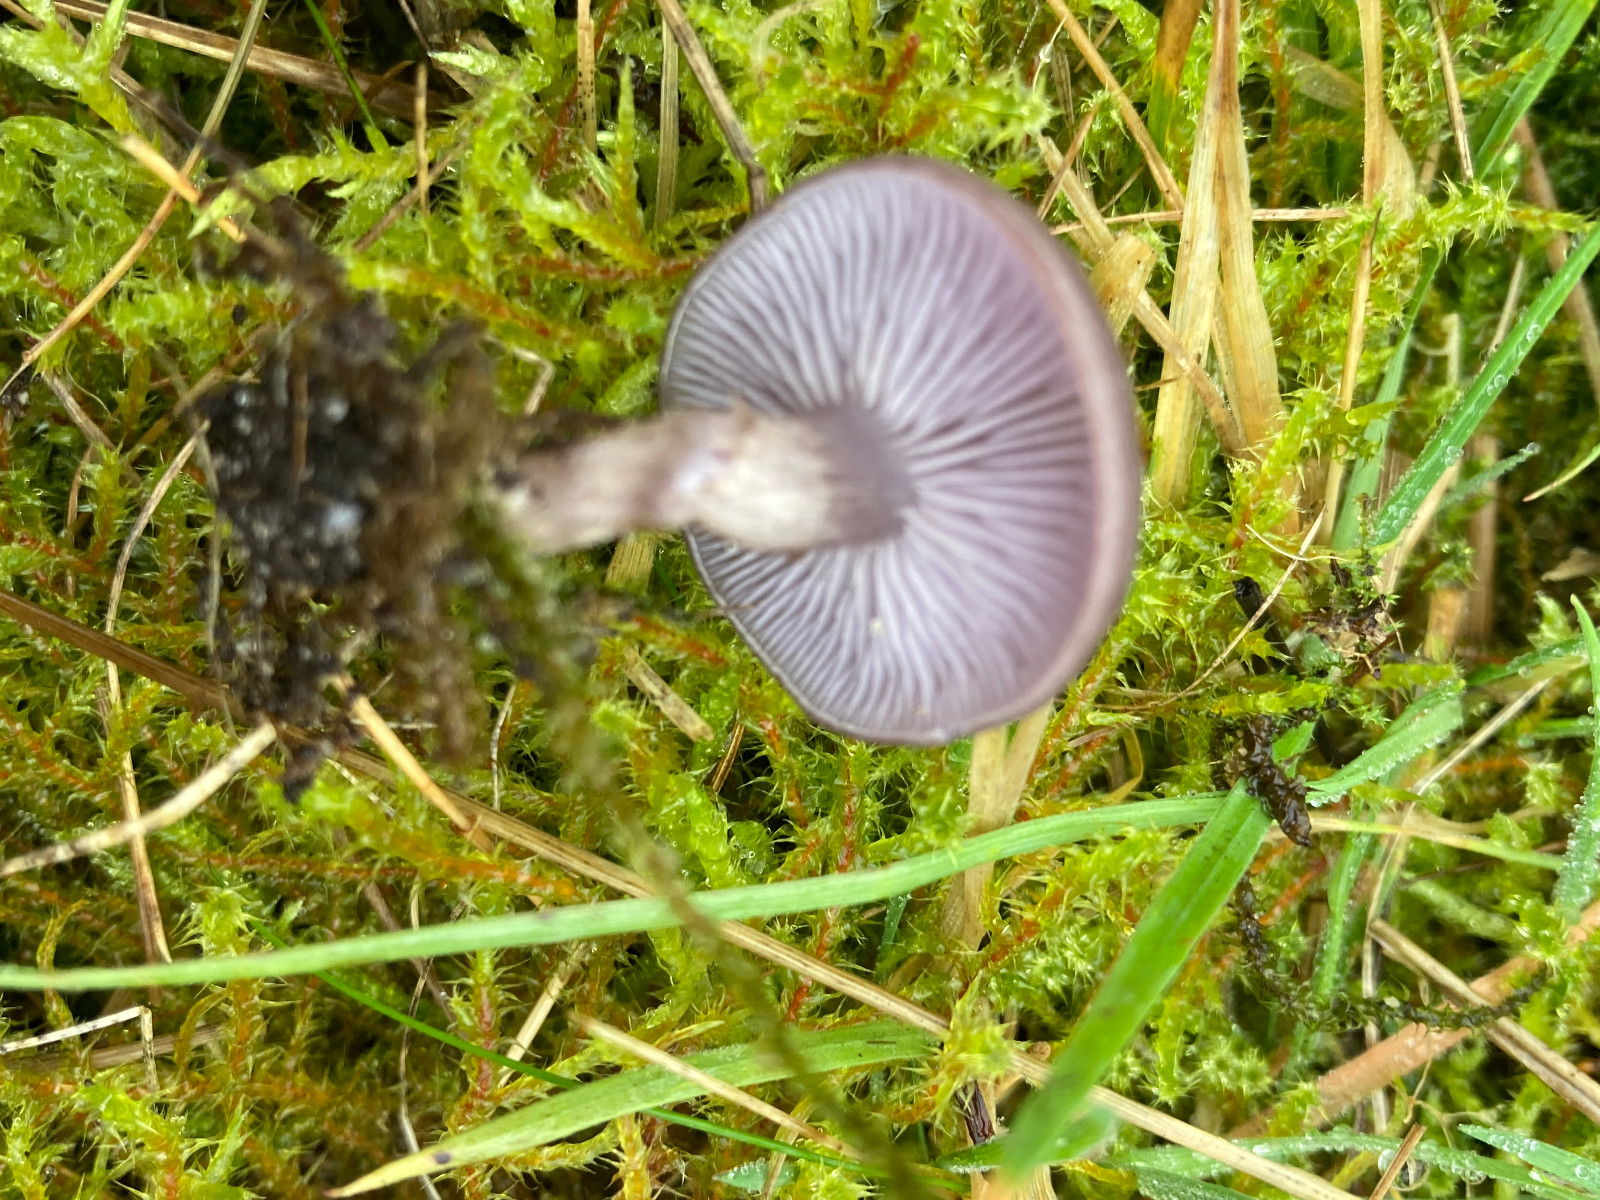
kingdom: Fungi
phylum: Basidiomycota
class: Agaricomycetes
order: Agaricales
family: Tricholomataceae
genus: Lepista
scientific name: Lepista sordida
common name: spinkel hekseringshat
